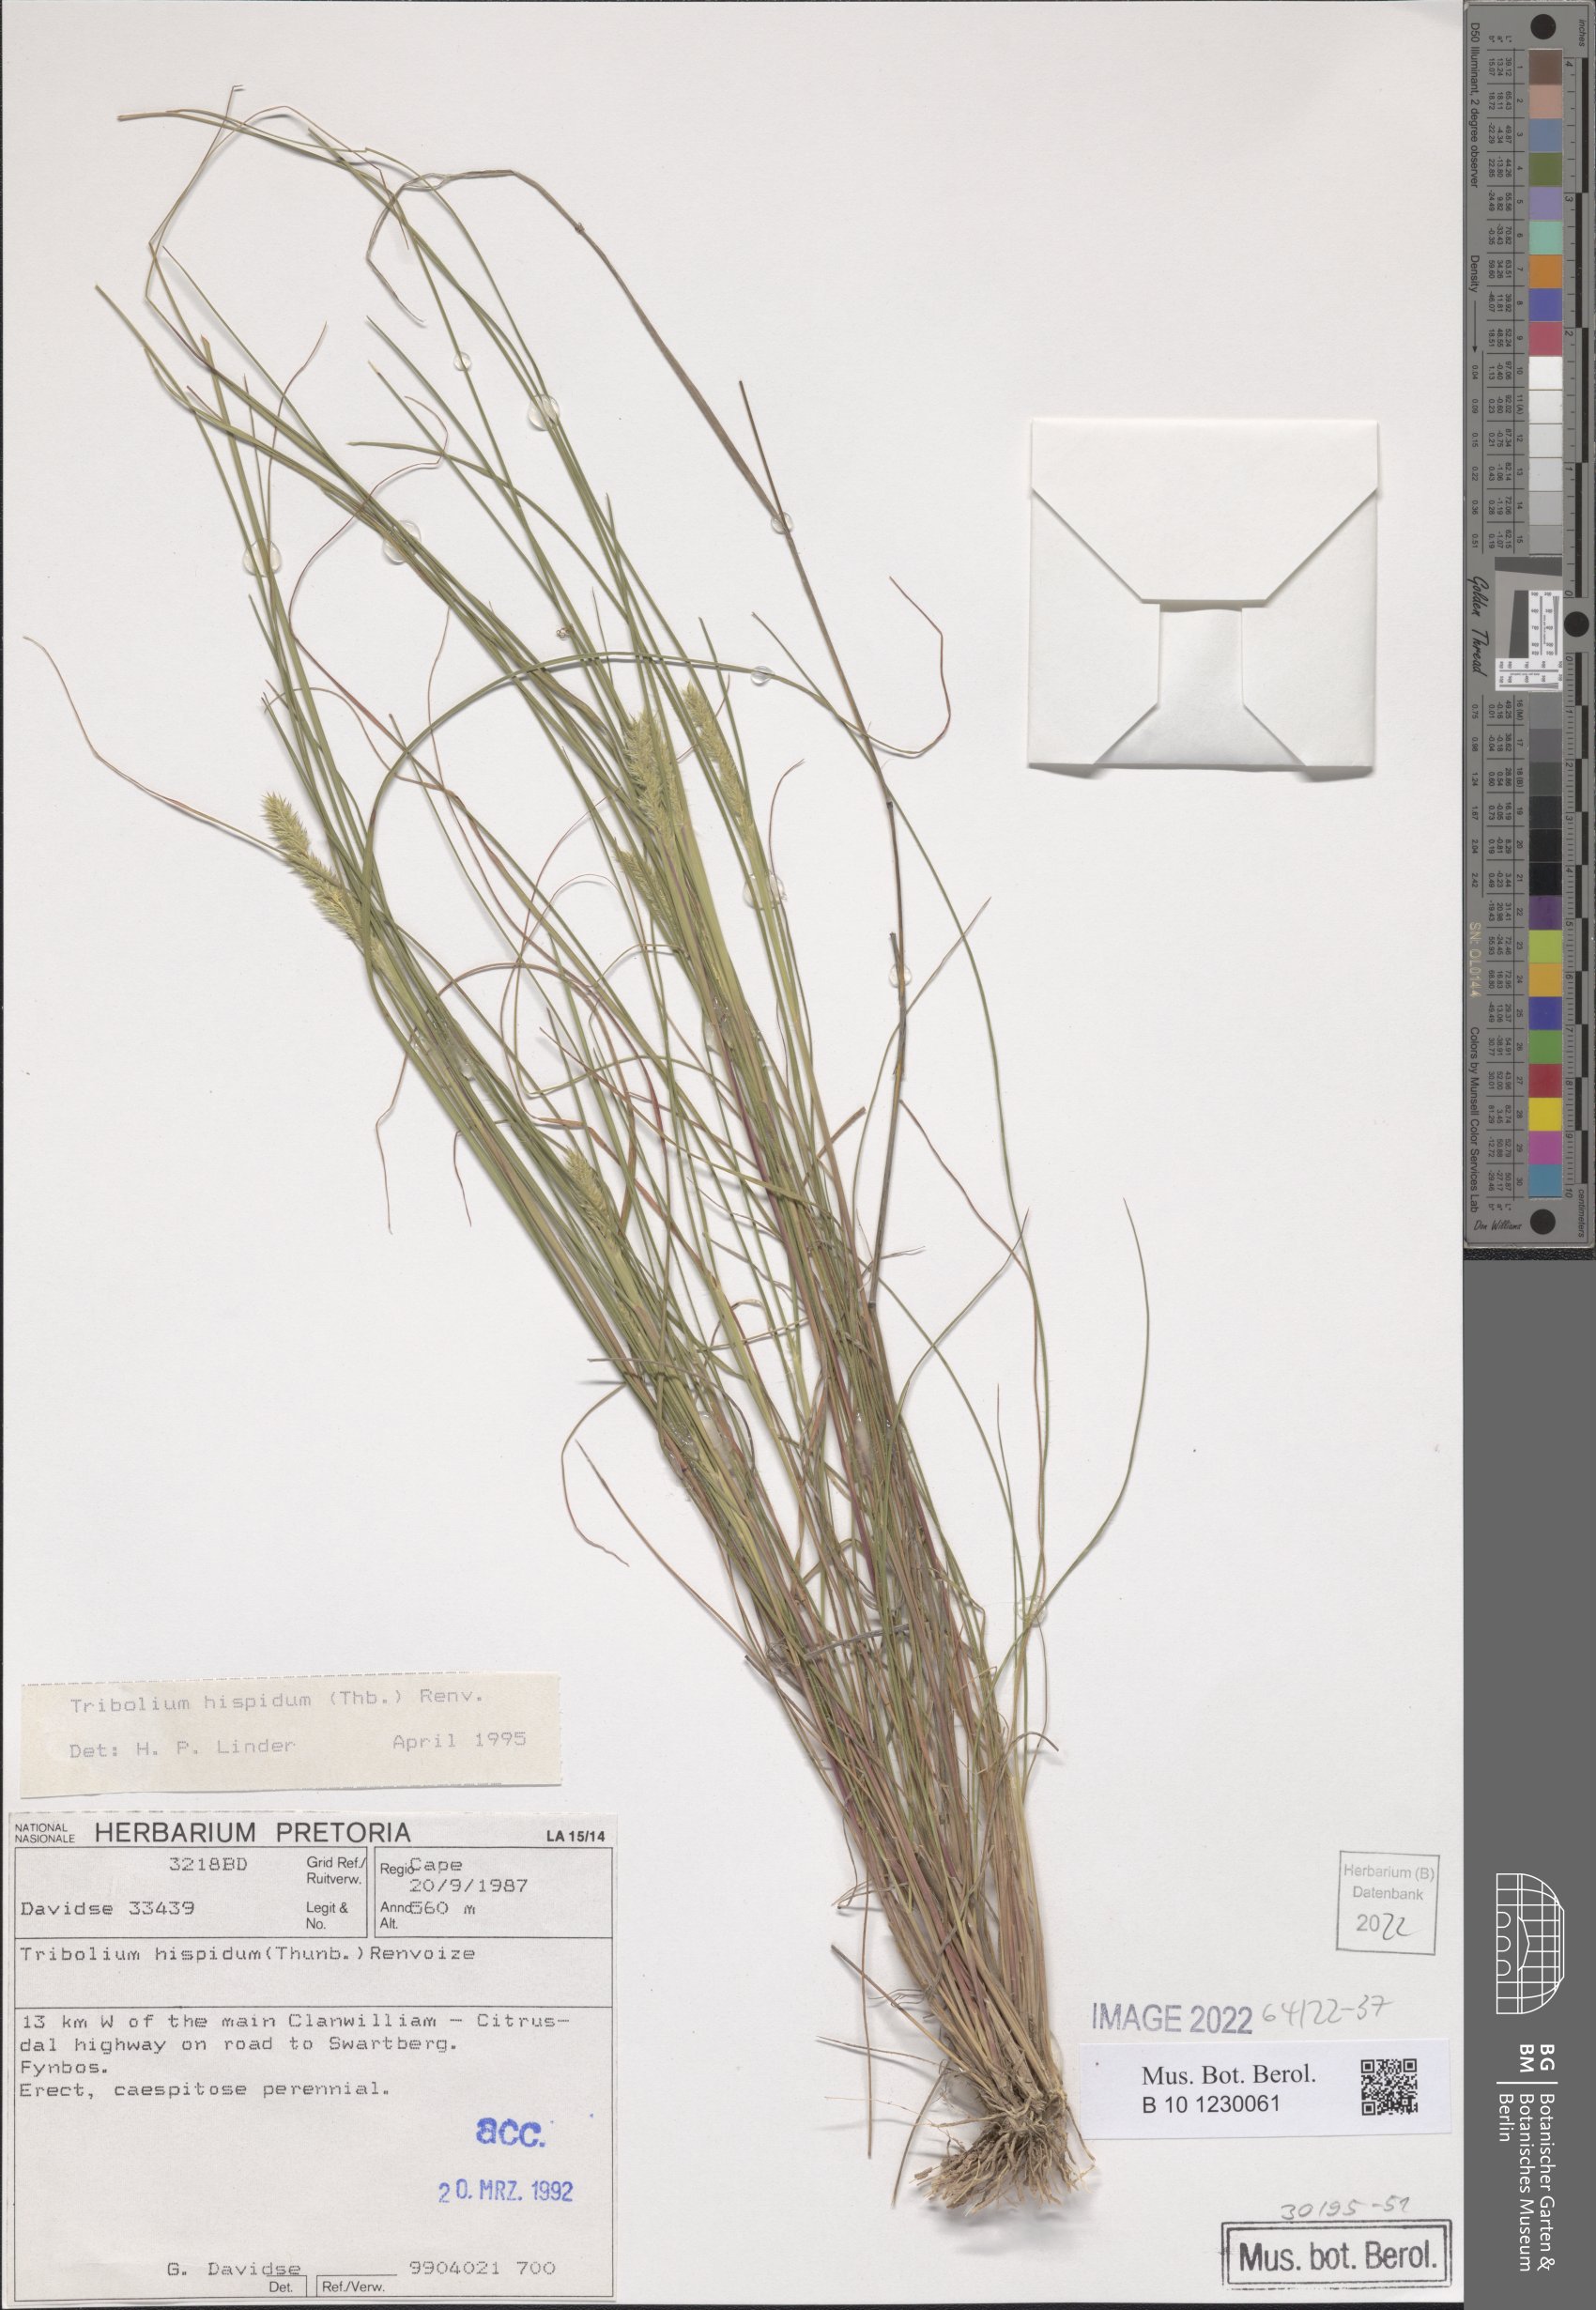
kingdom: Plantae
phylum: Tracheophyta
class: Liliopsida
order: Poales
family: Poaceae
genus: Tribolium
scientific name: Tribolium hispidum
